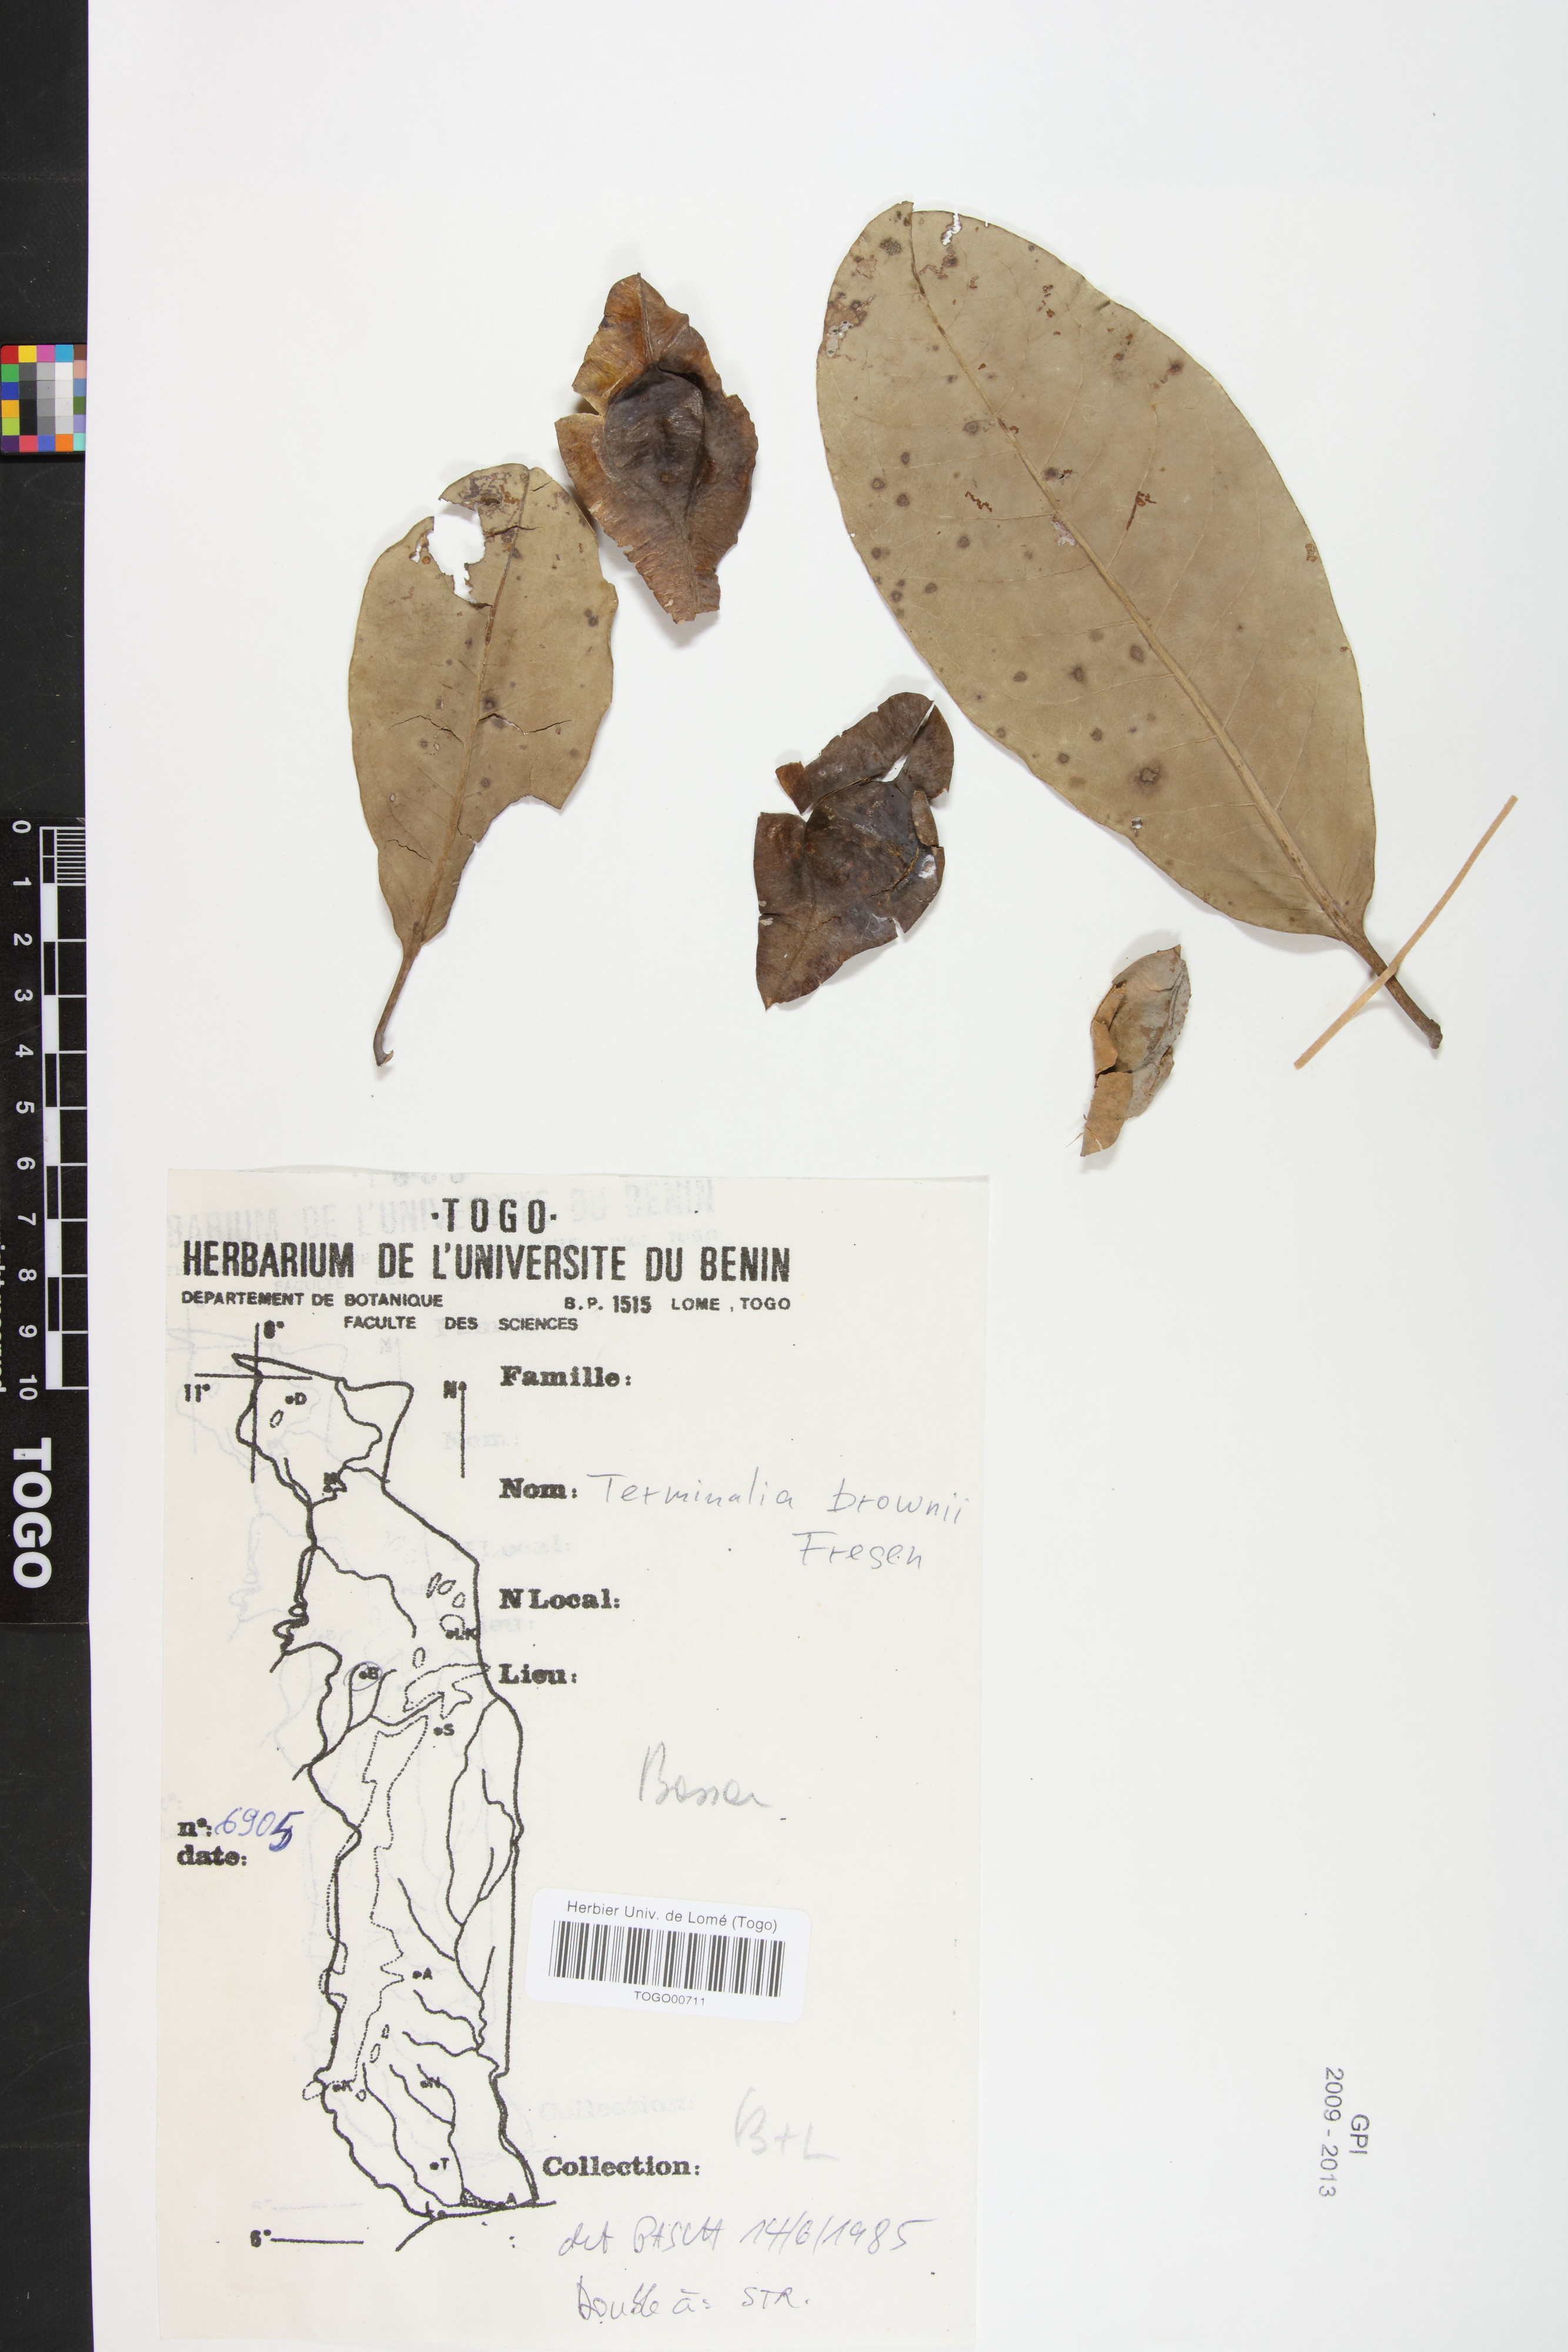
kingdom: Plantae
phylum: Tracheophyta
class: Magnoliopsida
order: Myrtales
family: Combretaceae
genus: Terminalia
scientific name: Terminalia brownii
